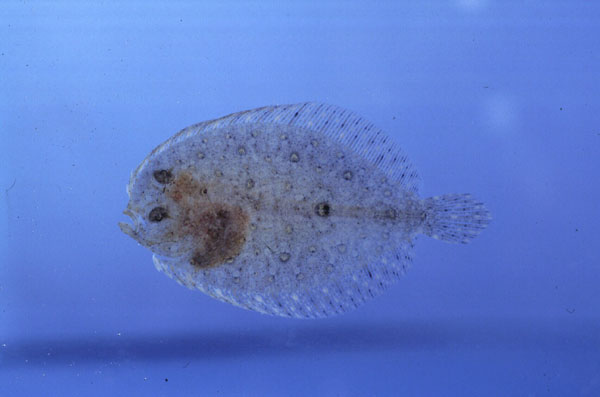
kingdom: Animalia
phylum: Chordata
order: Pleuronectiformes
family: Bothidae
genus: Bothus
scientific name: Bothus pantherinus
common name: Leopard flounder
